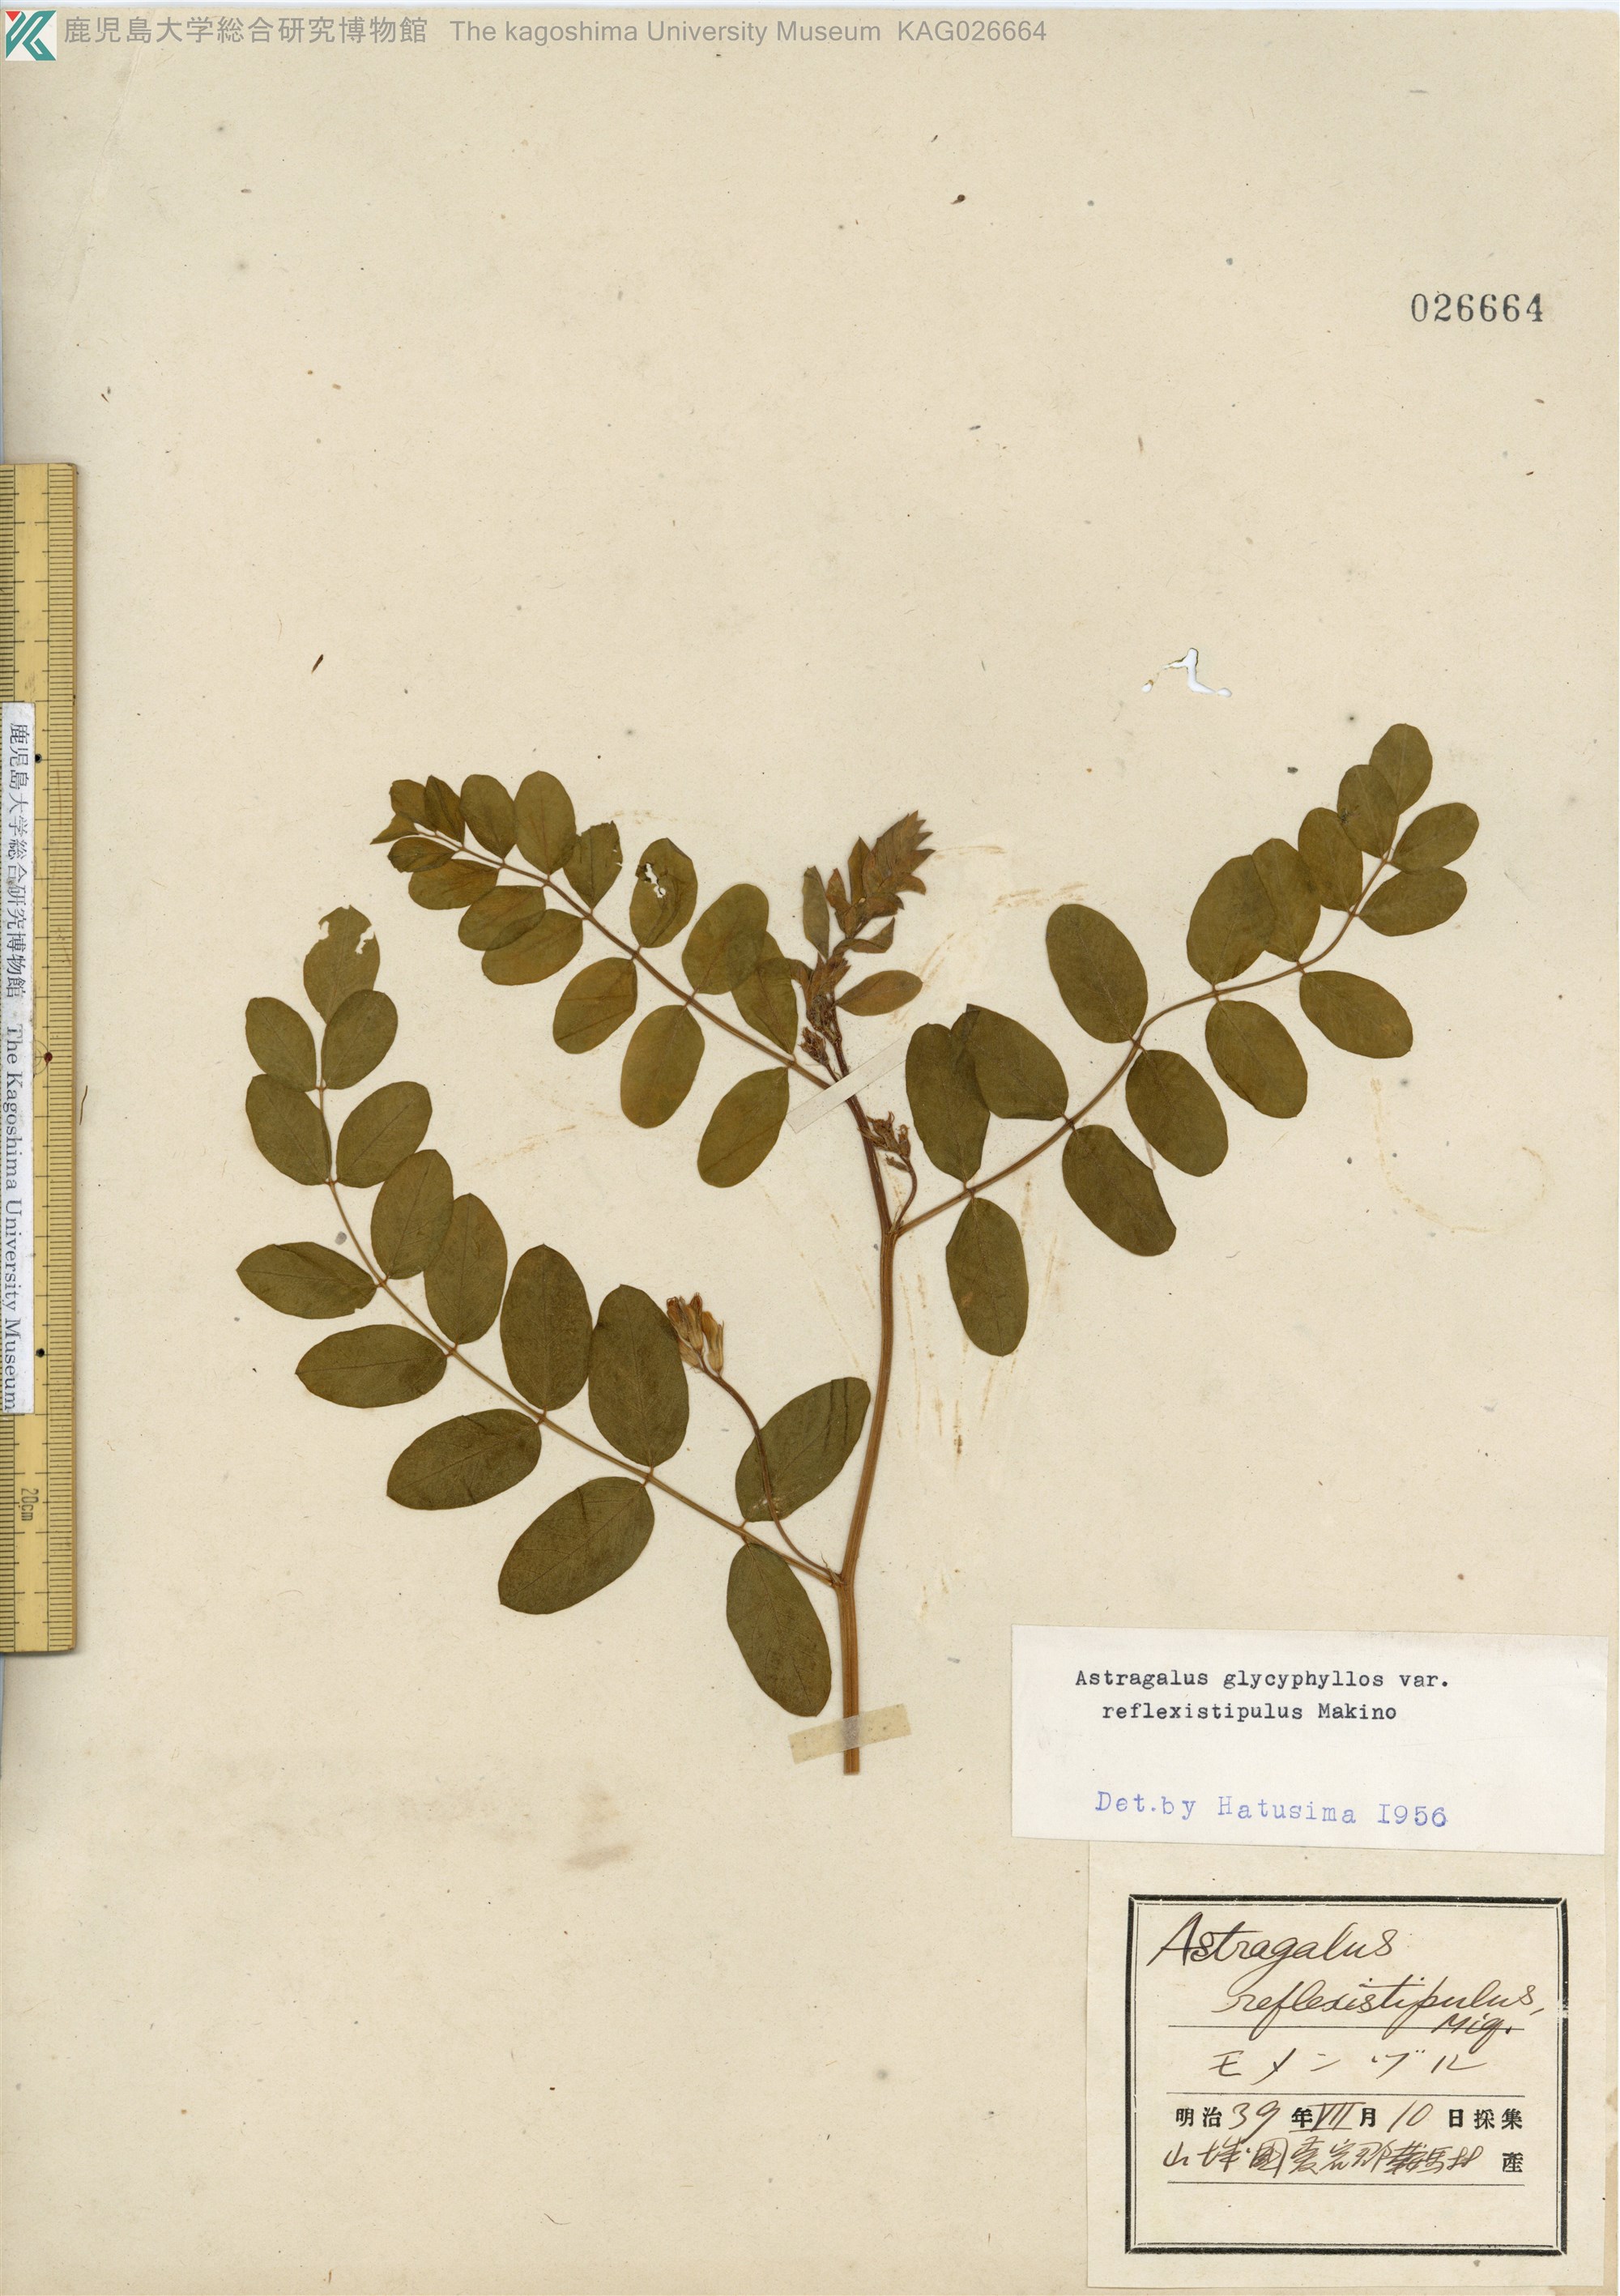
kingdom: Plantae
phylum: Tracheophyta
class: Magnoliopsida
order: Fabales
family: Fabaceae
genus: Astragalus
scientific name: Astragalus reflexistipulus
